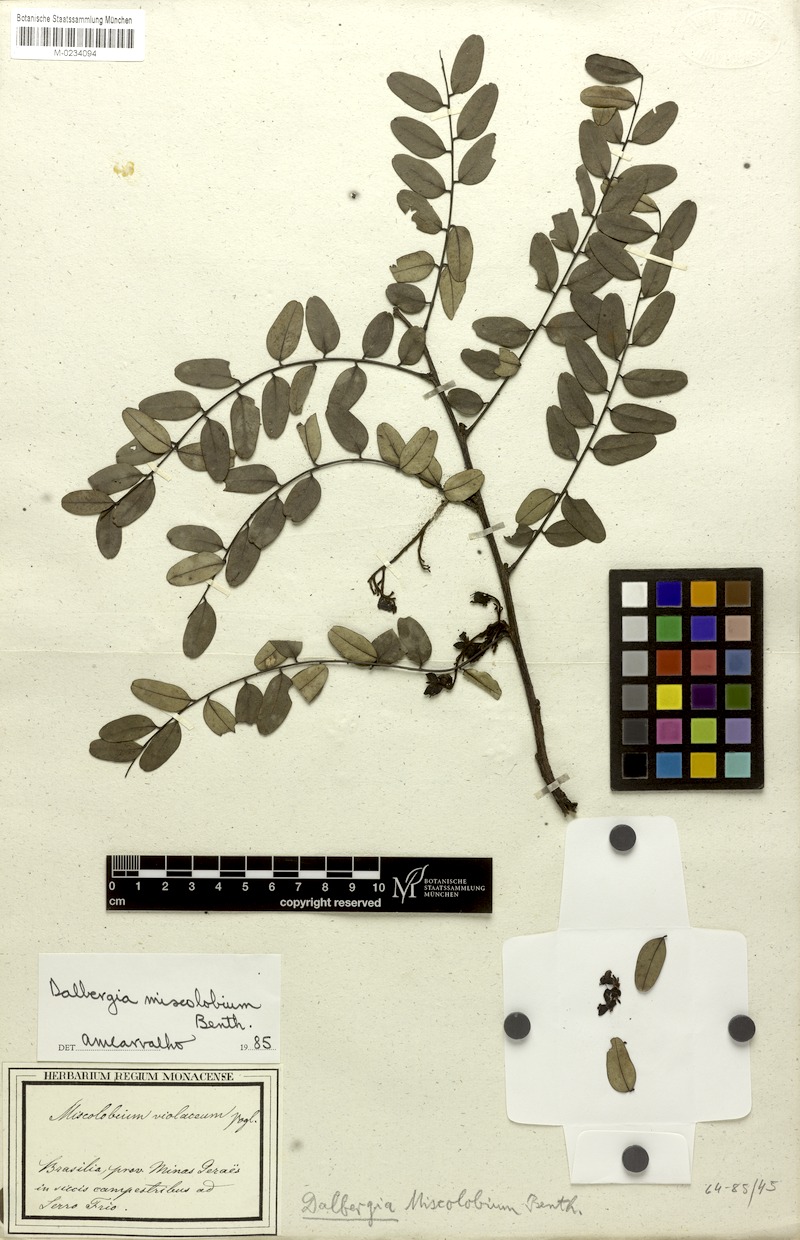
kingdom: Plantae
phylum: Tracheophyta
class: Magnoliopsida
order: Fabales
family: Fabaceae
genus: Dalbergia
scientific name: Dalbergia miscolobium
